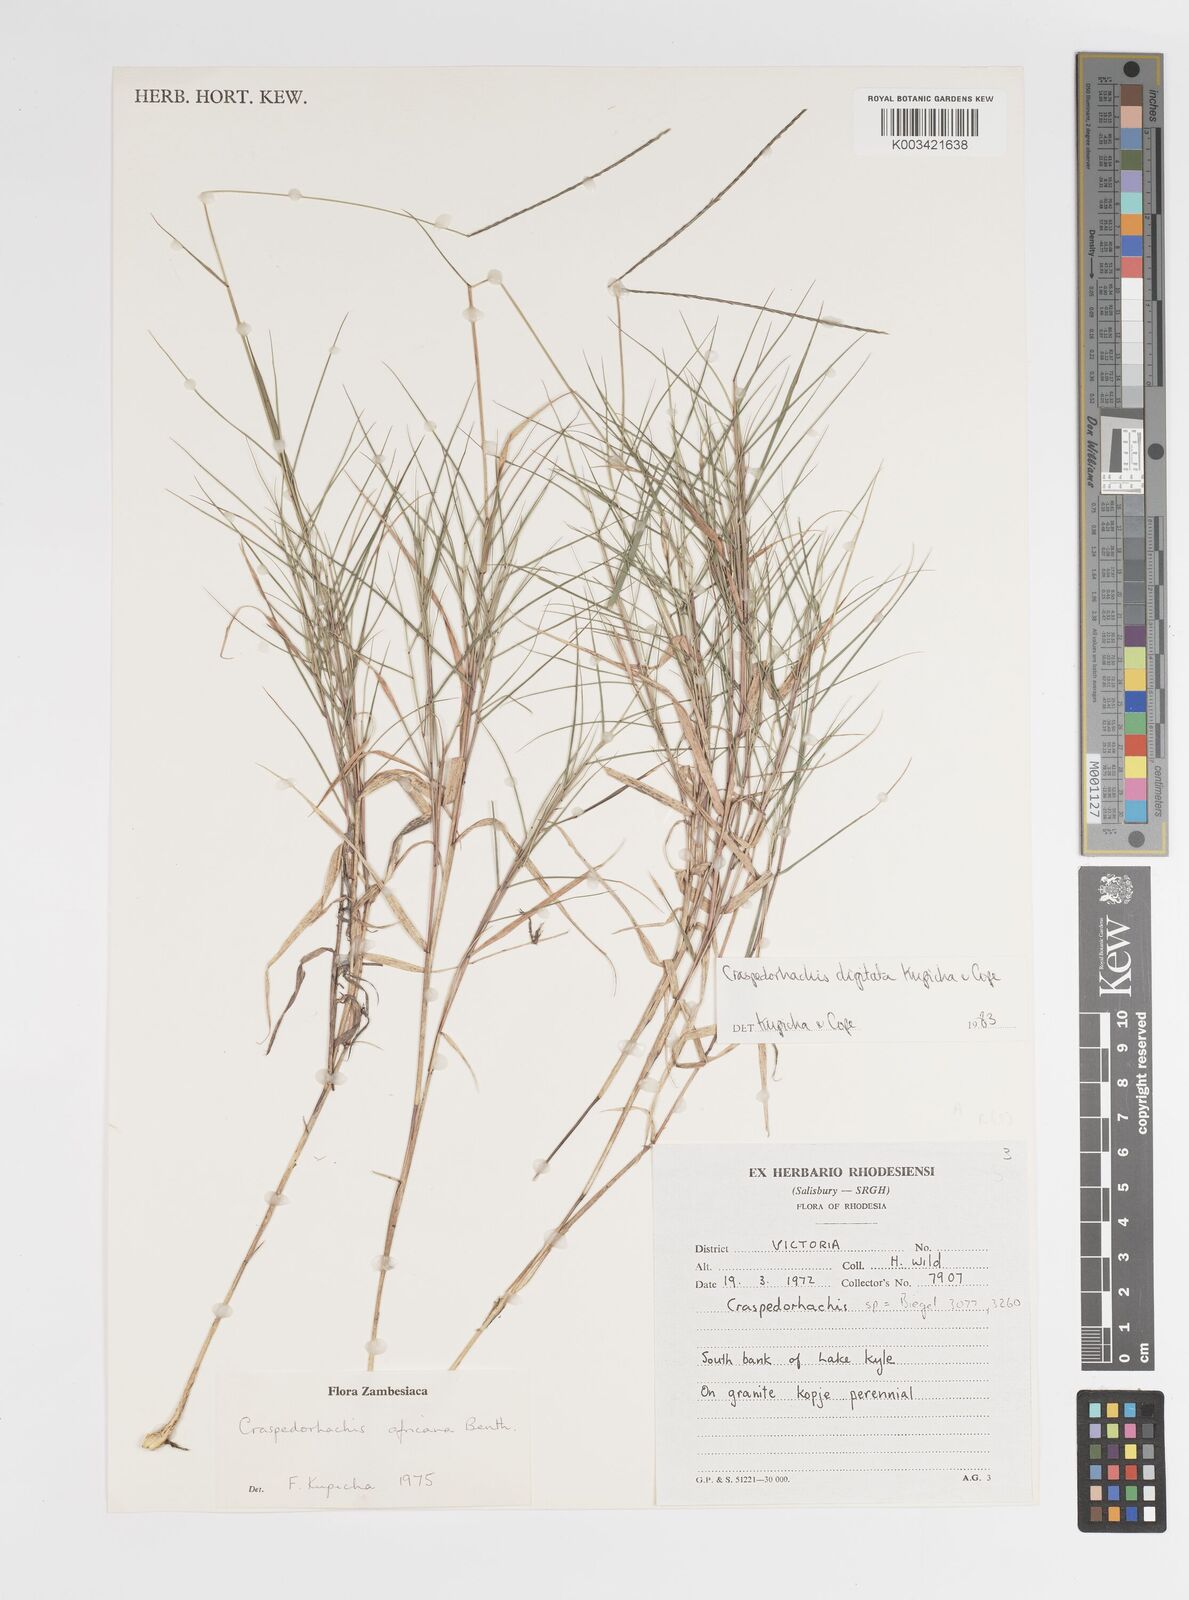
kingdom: Plantae
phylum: Tracheophyta
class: Liliopsida
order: Poales
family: Poaceae
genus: Craspedorhachis
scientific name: Craspedorhachis digitata
